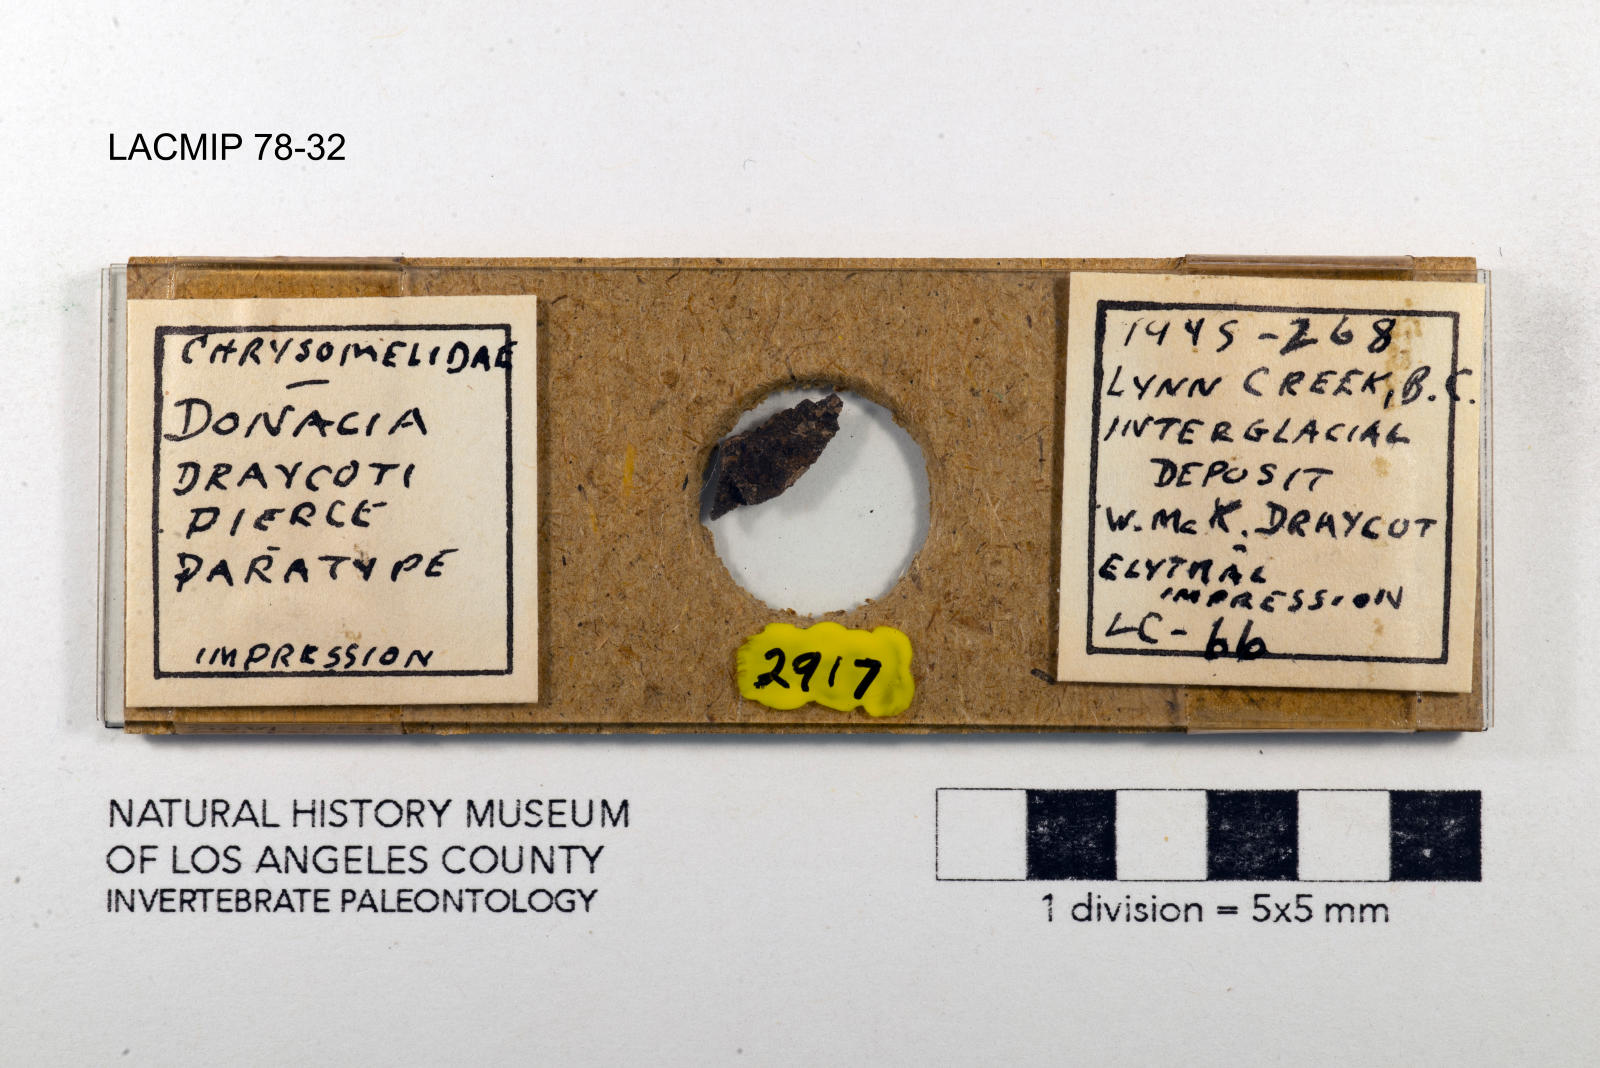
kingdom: Animalia
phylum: Arthropoda
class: Insecta
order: Coleoptera
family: Chrysomelidae
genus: Donacia
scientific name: Donacia draycoti
